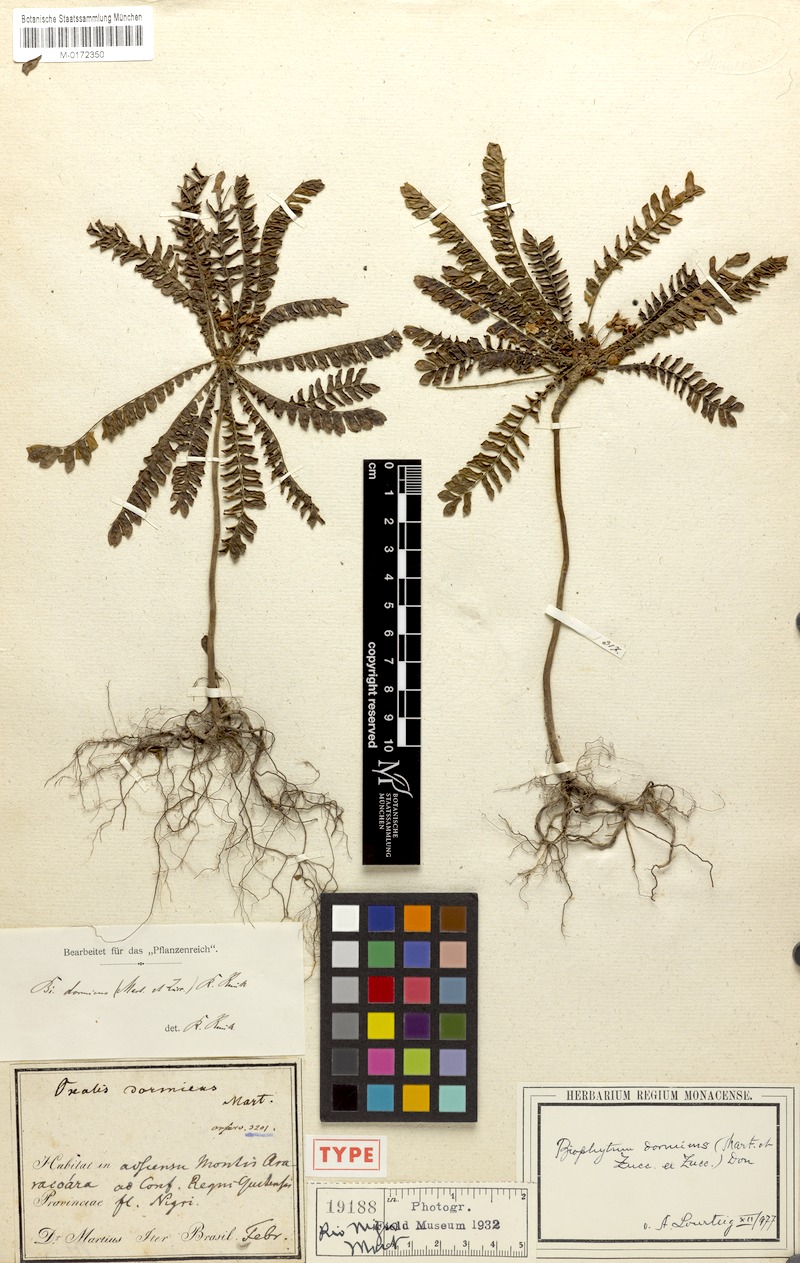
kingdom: Plantae
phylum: Tracheophyta
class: Magnoliopsida
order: Oxalidales
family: Oxalidaceae
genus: Biophytum
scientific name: Biophytum dormiens
